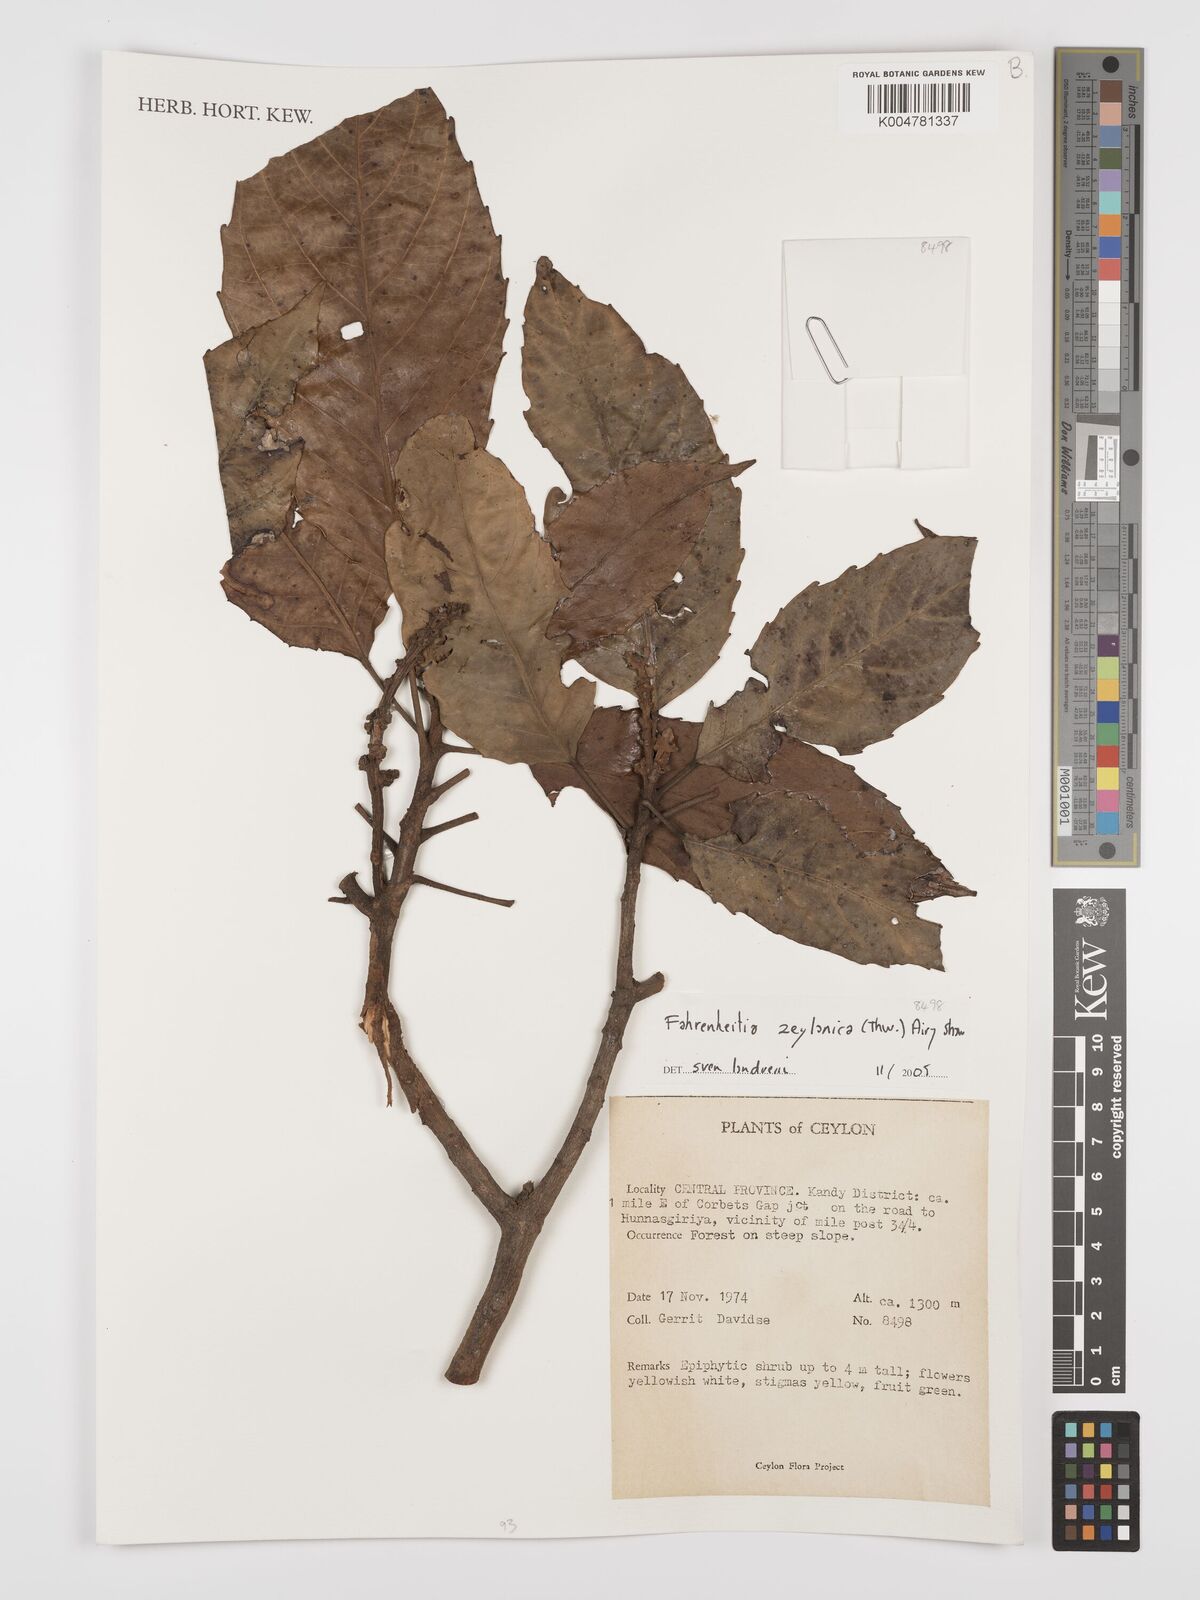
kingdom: Plantae
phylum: Tracheophyta
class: Magnoliopsida
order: Malpighiales
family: Euphorbiaceae
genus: Paracroton
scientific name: Paracroton zeylanicus
